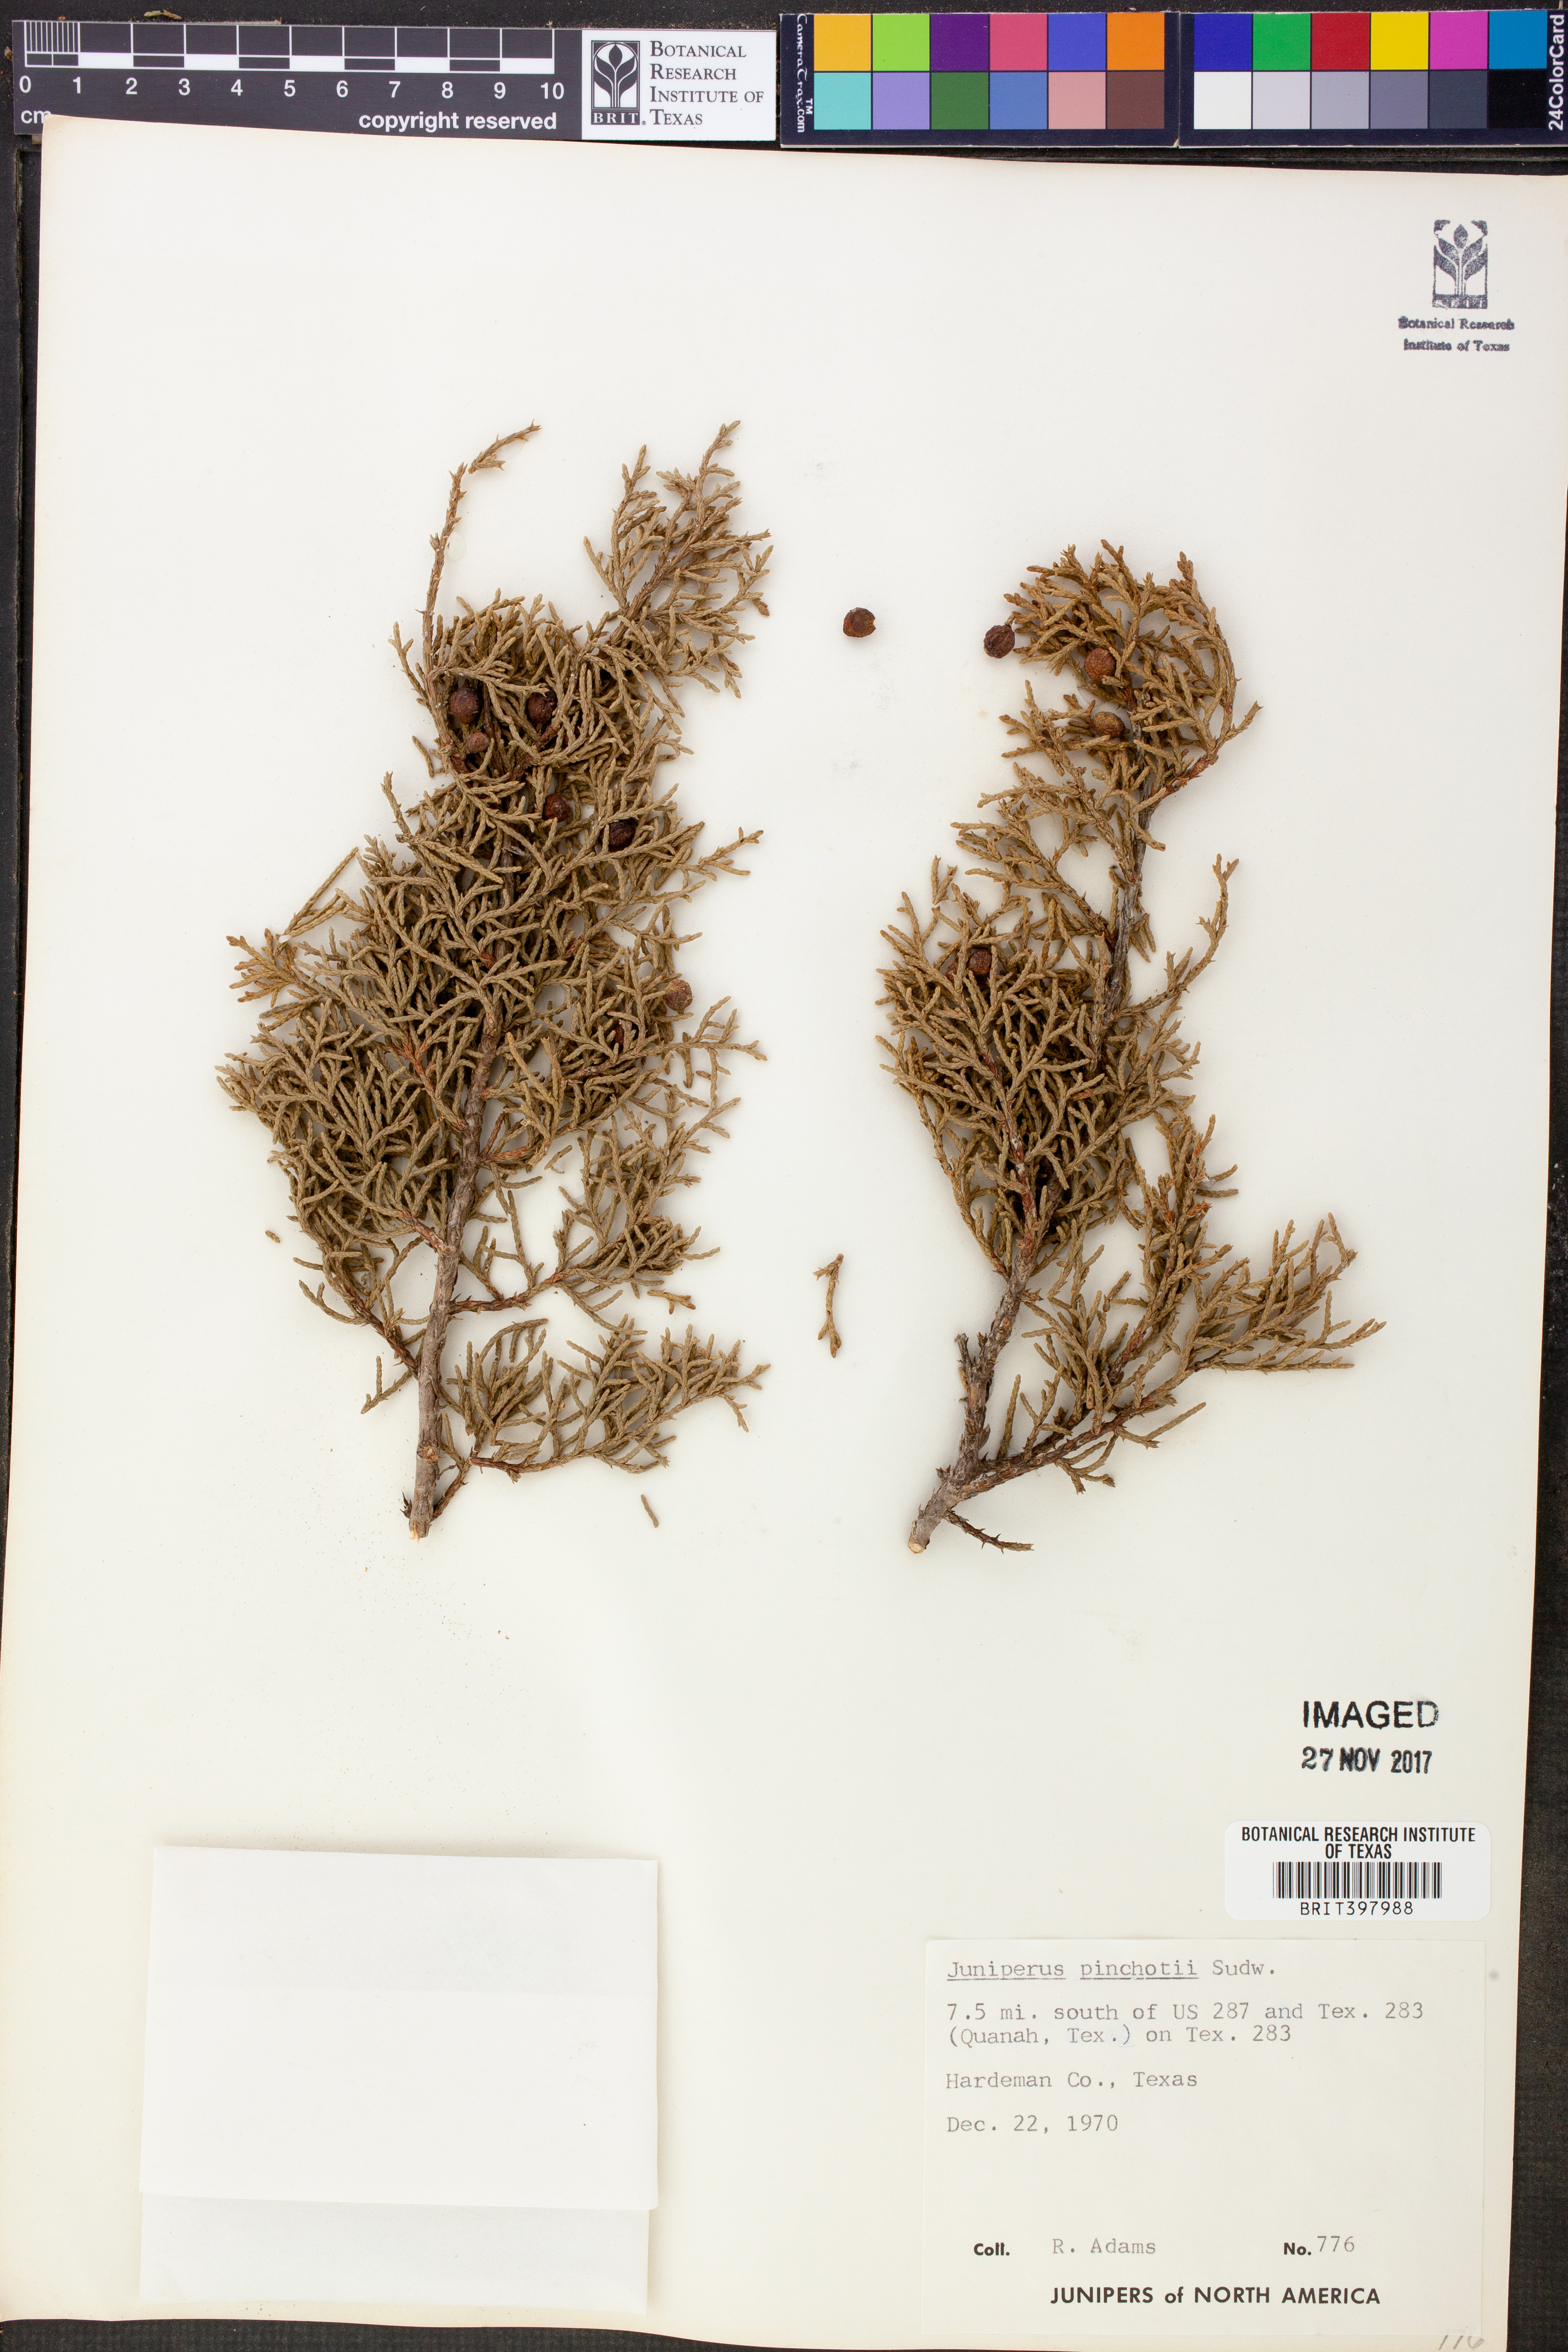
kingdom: Plantae
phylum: Tracheophyta
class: Pinopsida
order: Pinales
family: Cupressaceae
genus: Juniperus
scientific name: Juniperus pinchotii
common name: Pinchot juniper
